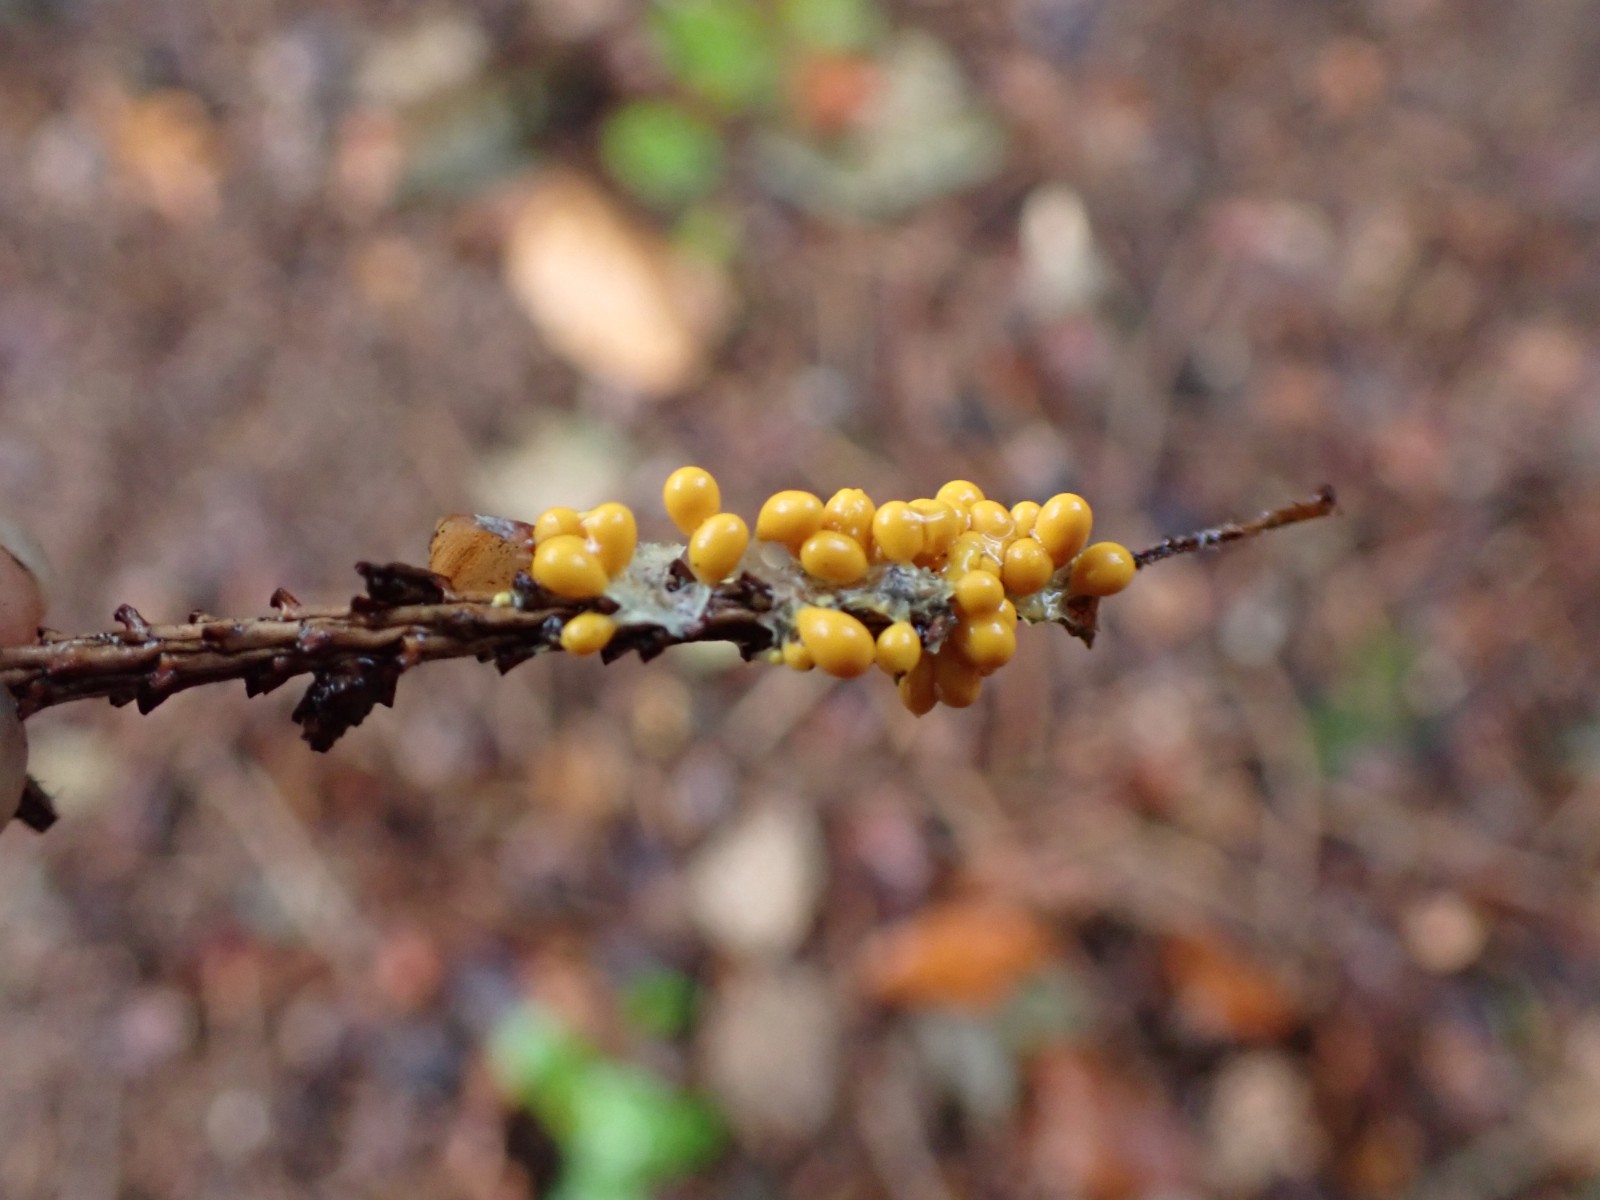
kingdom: Protozoa
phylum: Mycetozoa
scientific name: Mycetozoa
